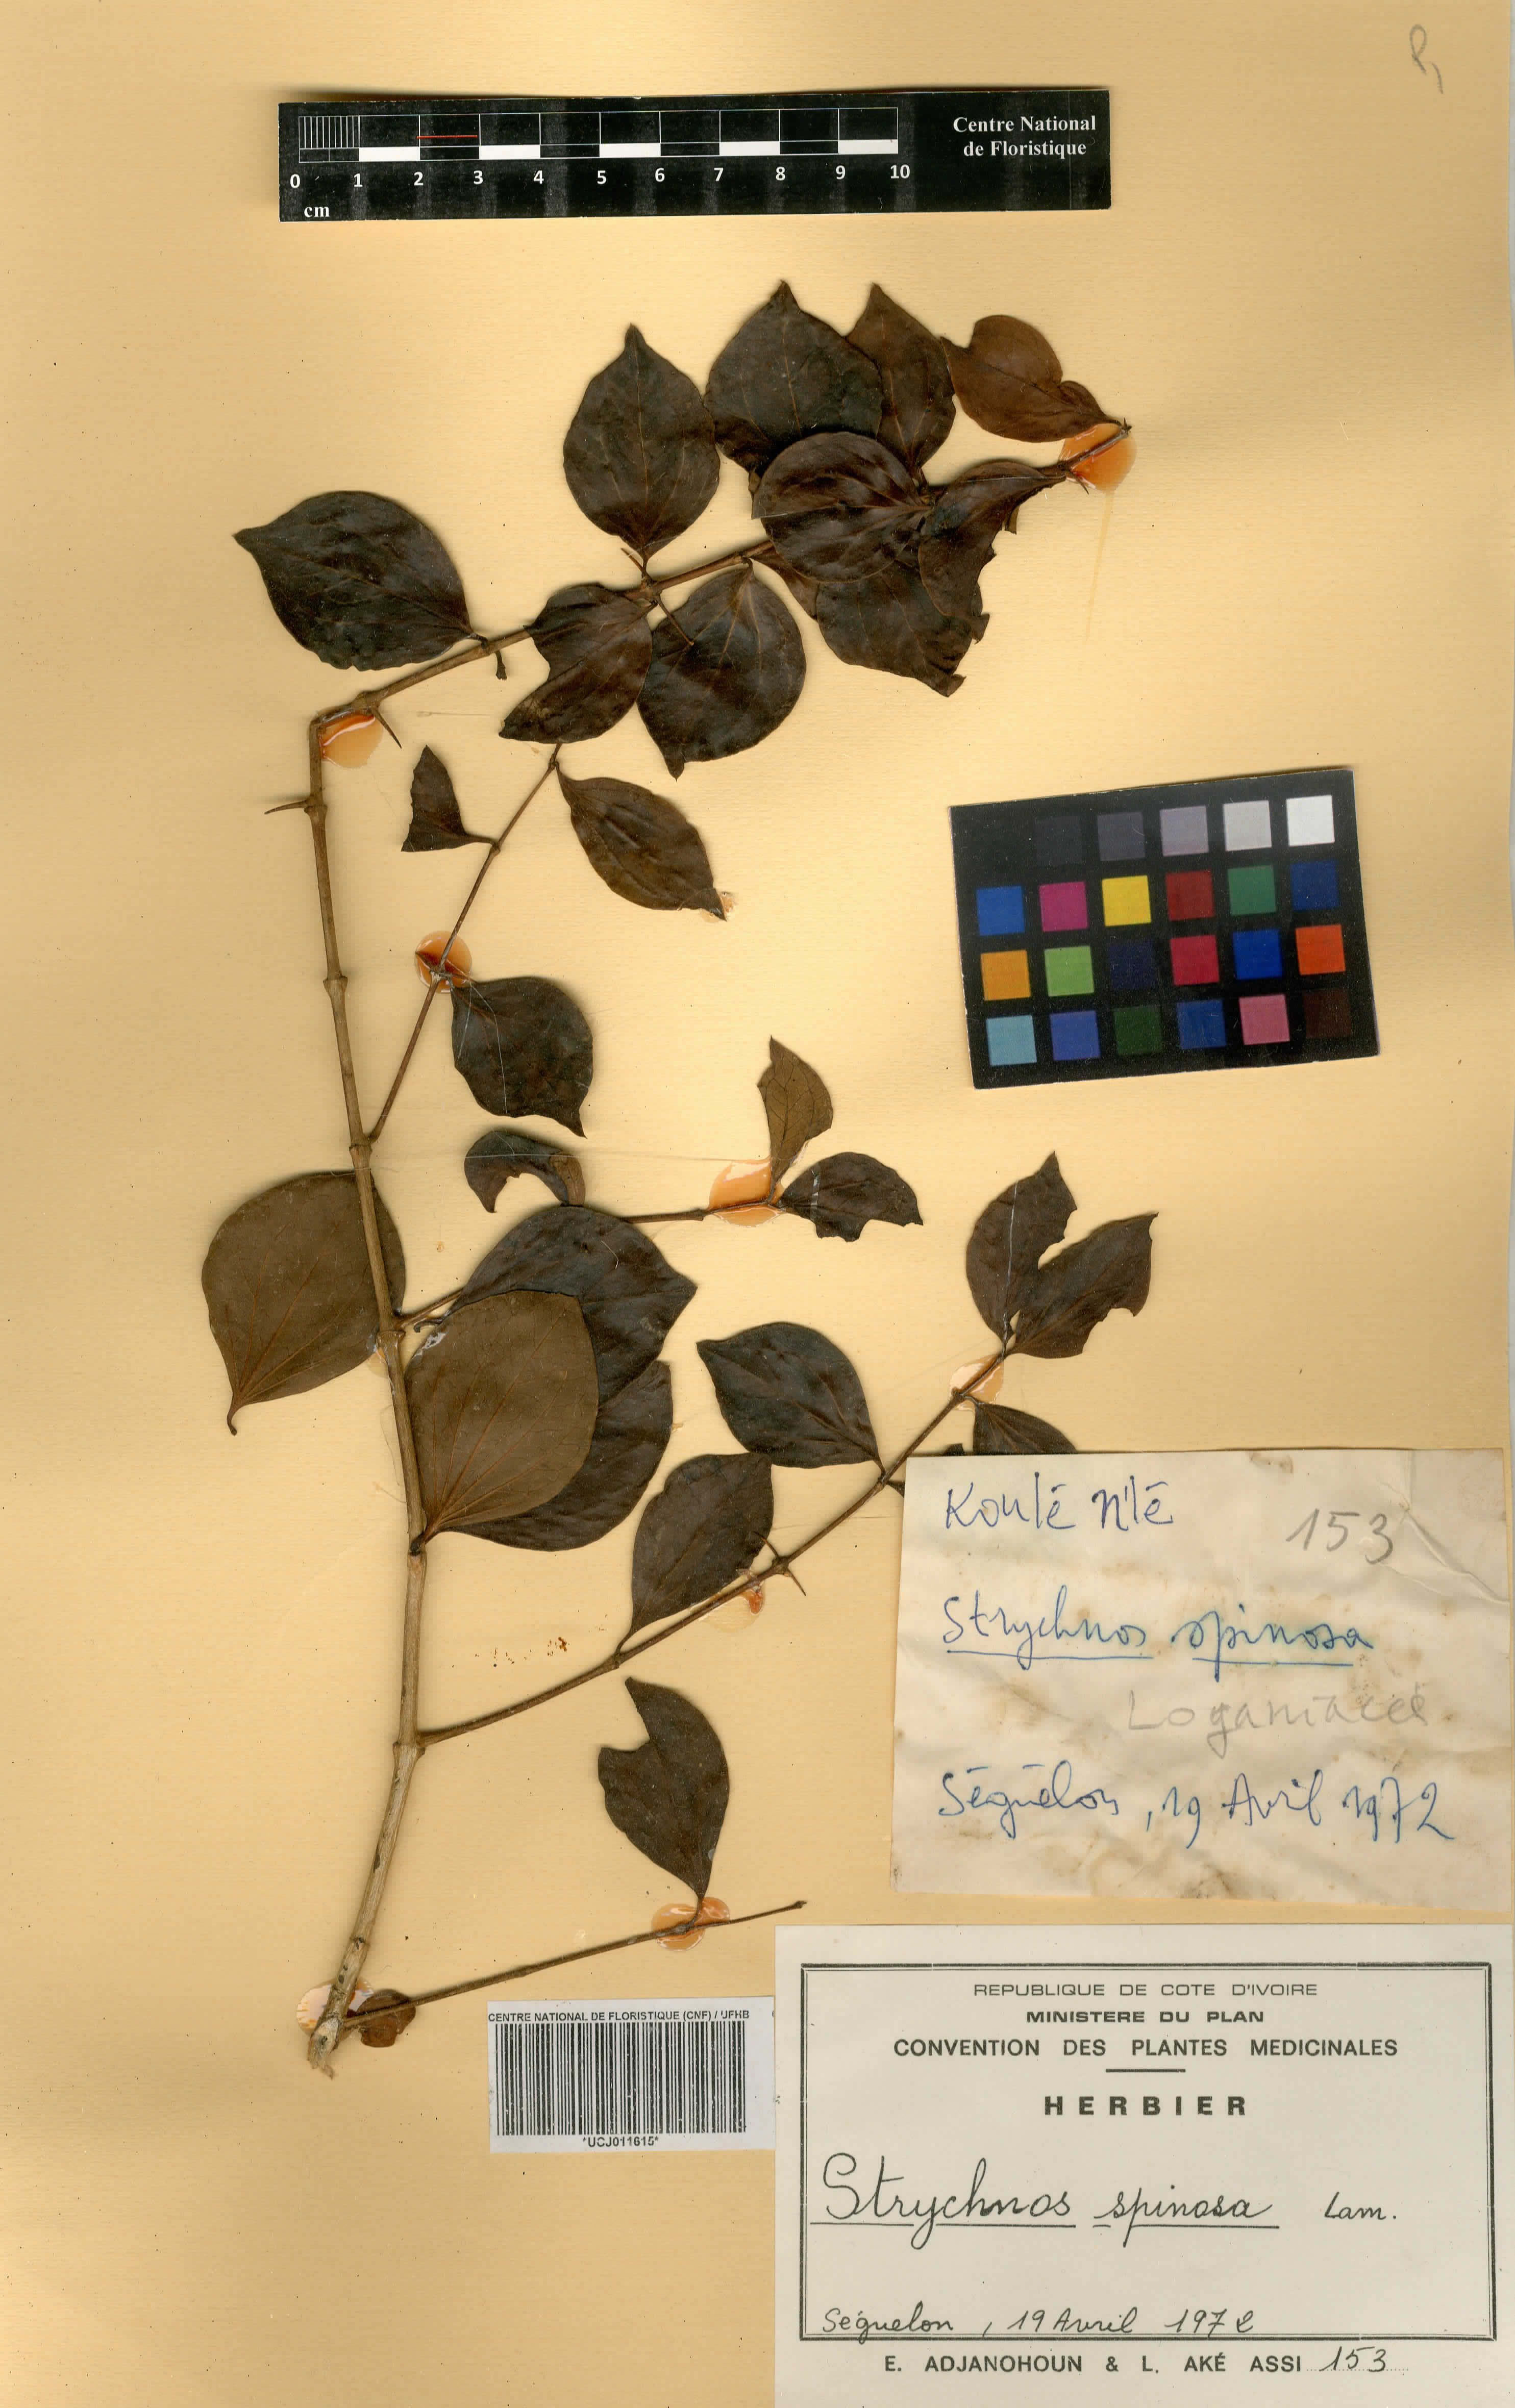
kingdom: Plantae
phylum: Tracheophyta
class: Magnoliopsida
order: Gentianales
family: Loganiaceae
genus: Strychnos
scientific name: Strychnos spinosa
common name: Natal orange
